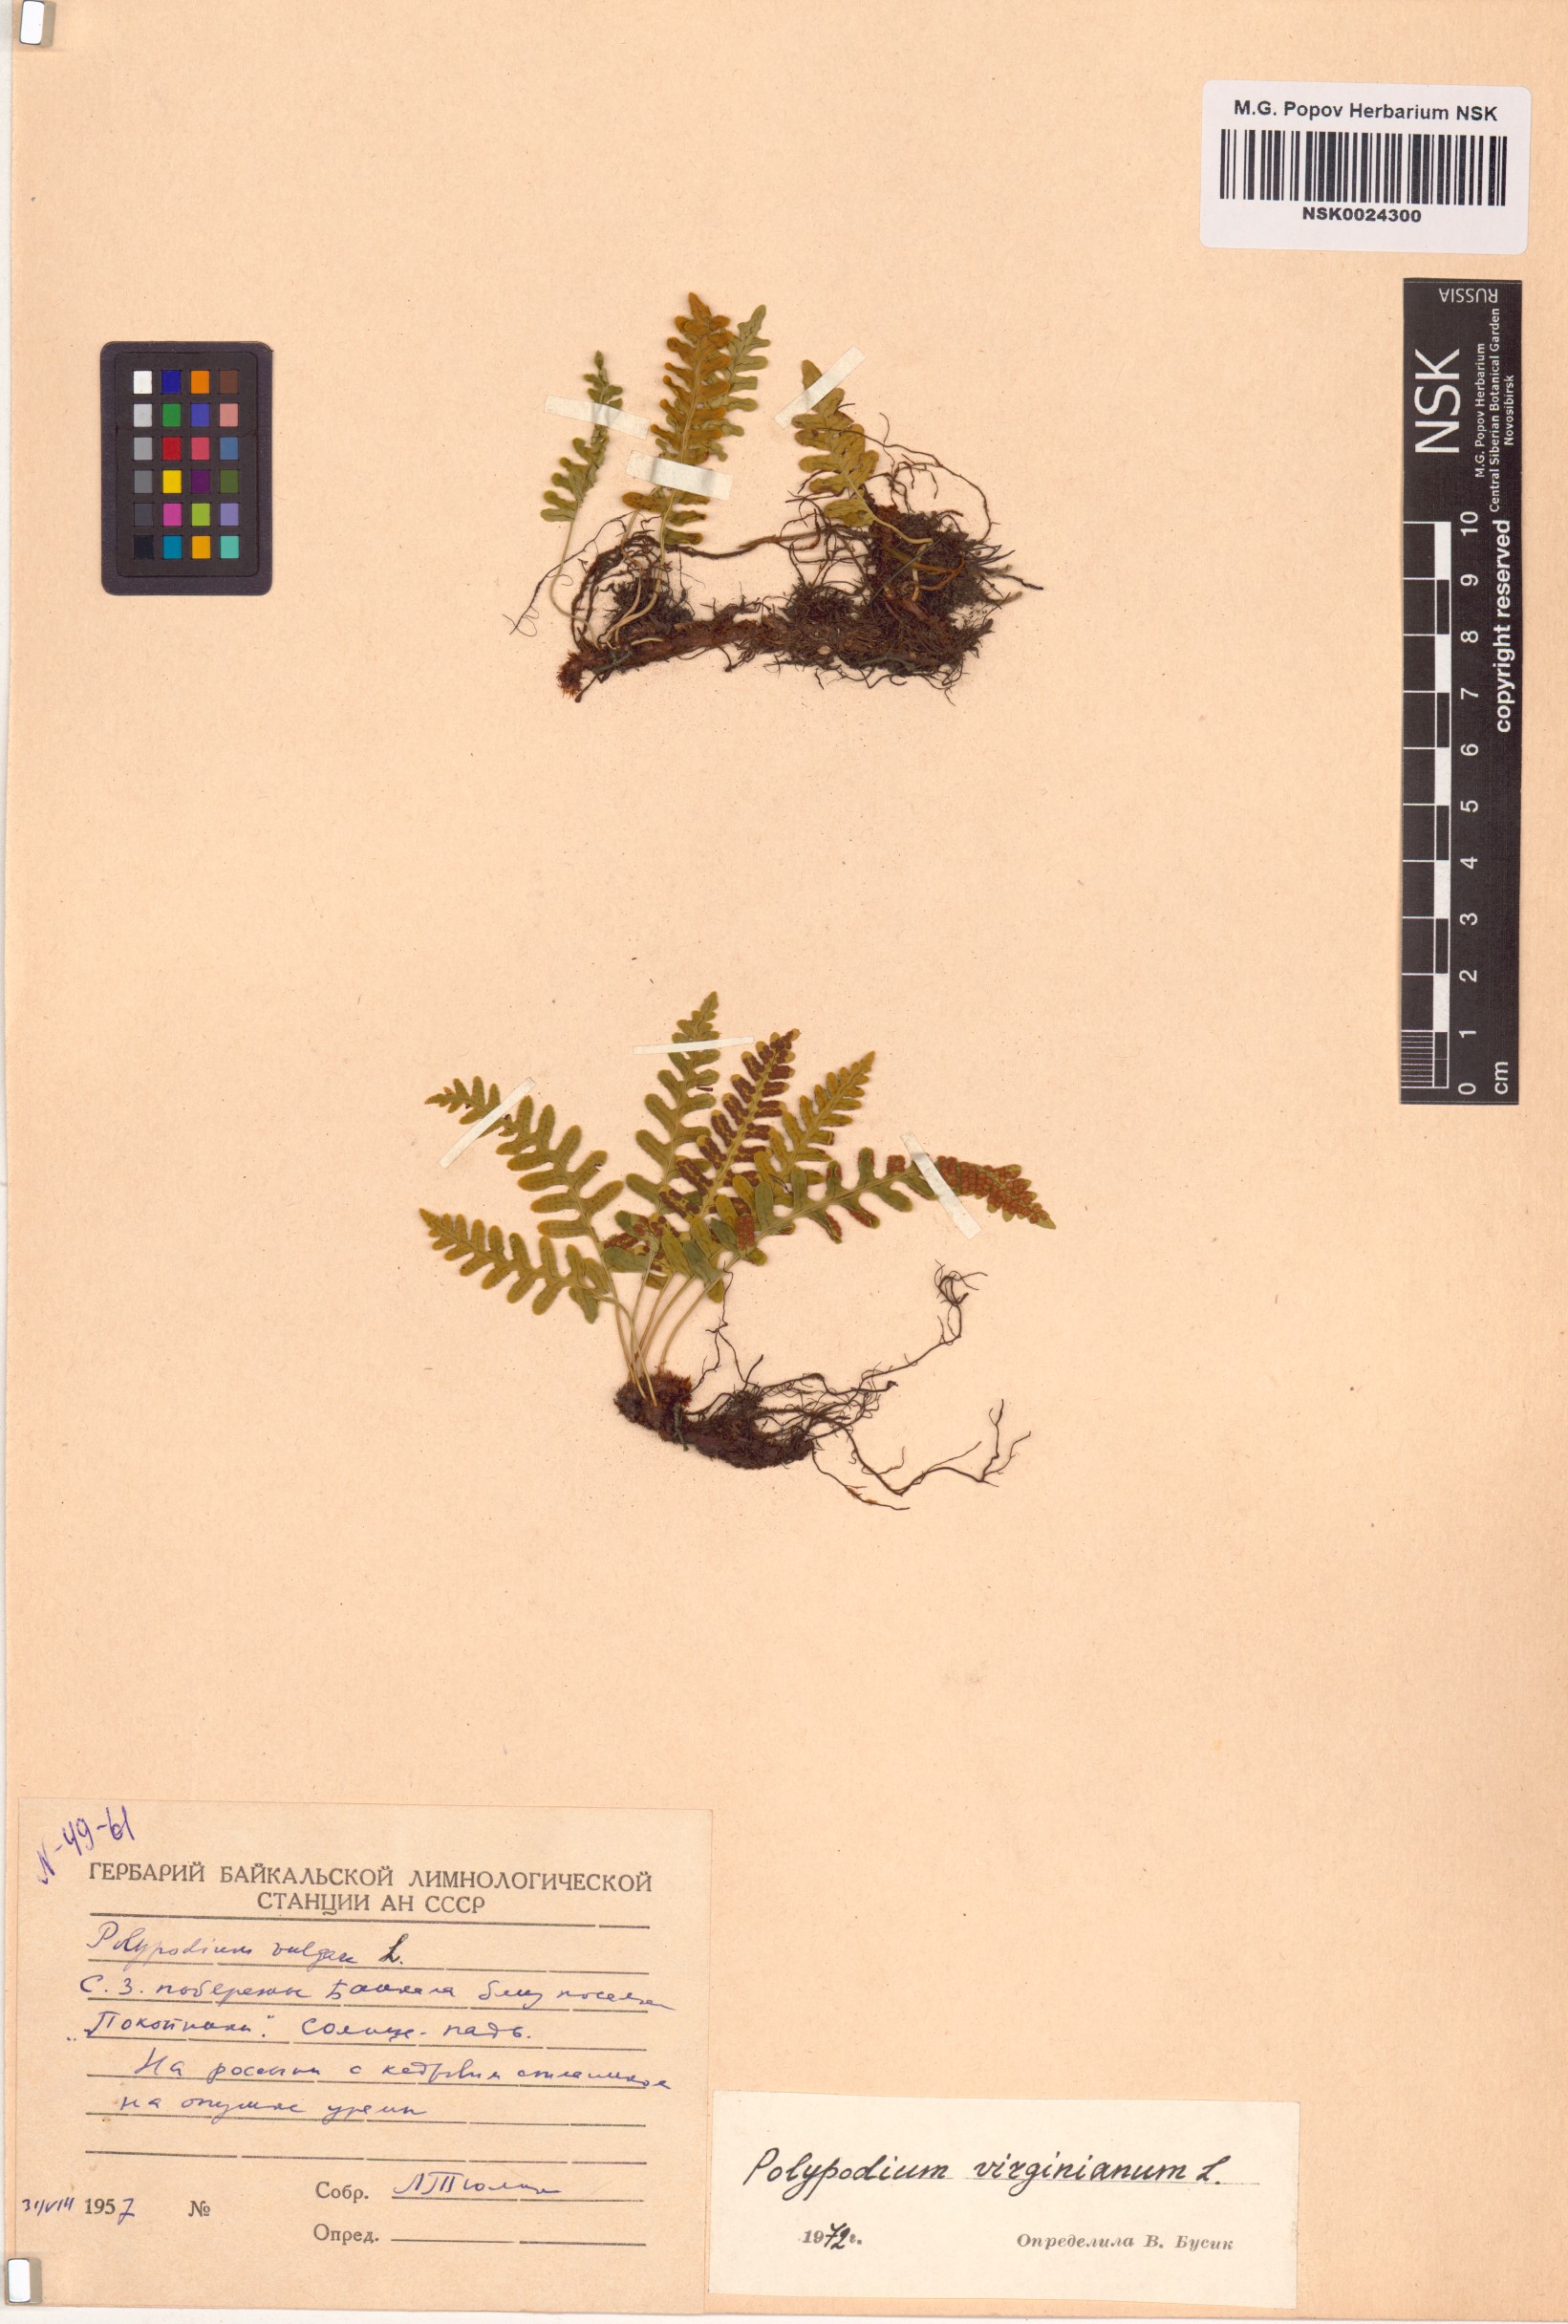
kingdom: Plantae
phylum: Tracheophyta
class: Polypodiopsida
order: Polypodiales
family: Polypodiaceae
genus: Polypodium
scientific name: Polypodium virginianum
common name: American wall fern
